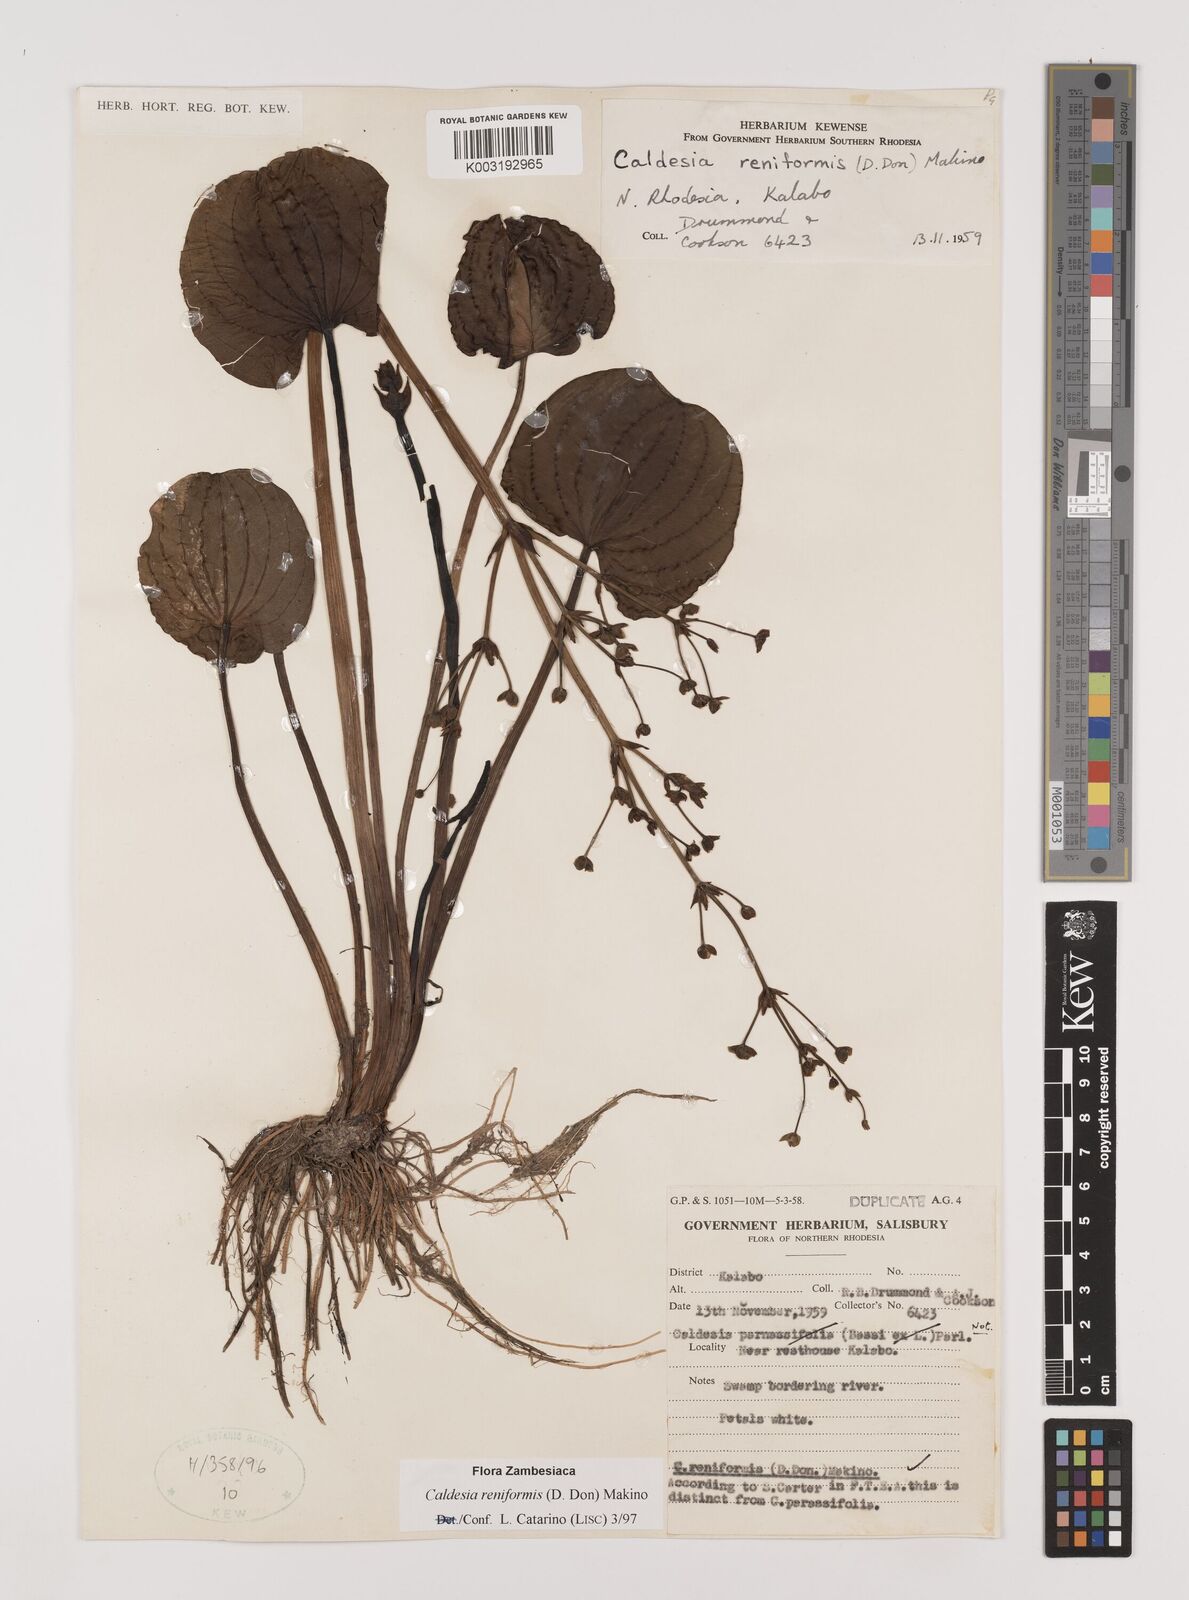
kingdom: Plantae
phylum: Tracheophyta
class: Liliopsida
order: Alismatales
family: Alismataceae
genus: Caldesia
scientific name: Caldesia parnassifolia
